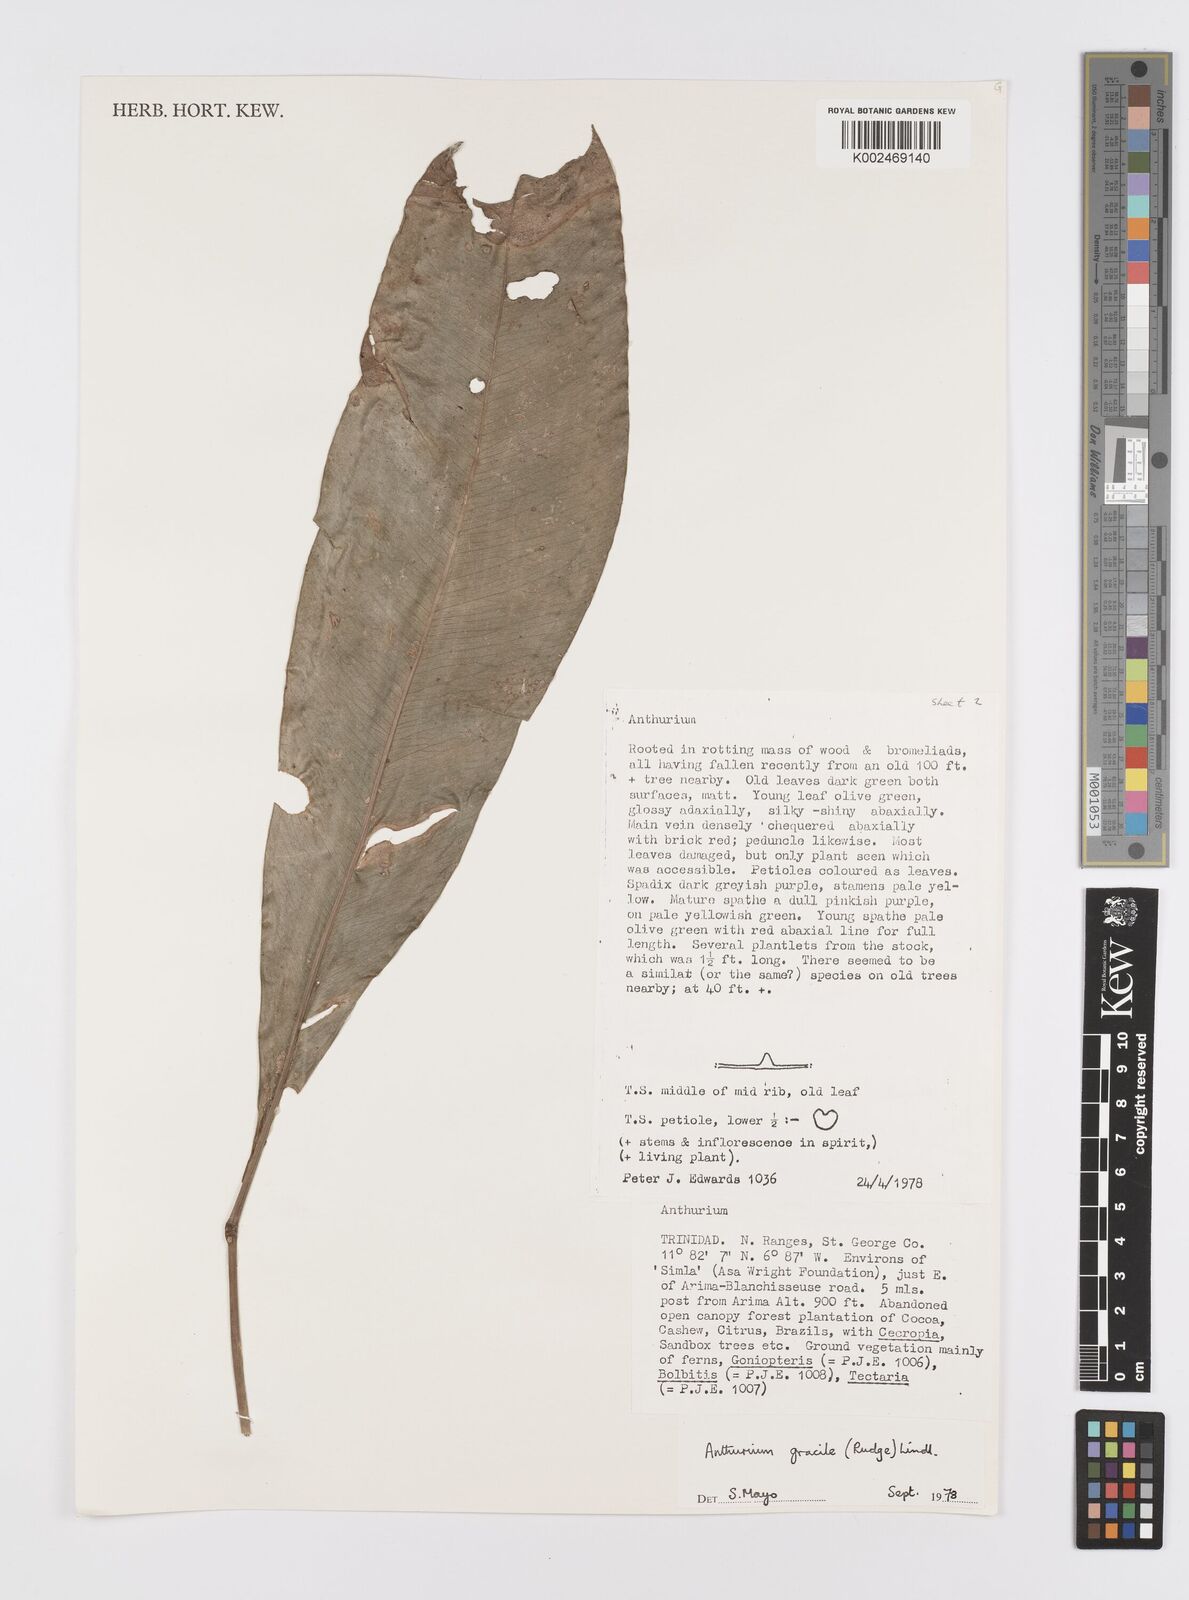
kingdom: Plantae
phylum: Tracheophyta
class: Liliopsida
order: Alismatales
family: Araceae
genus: Anthurium
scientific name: Anthurium gracile
